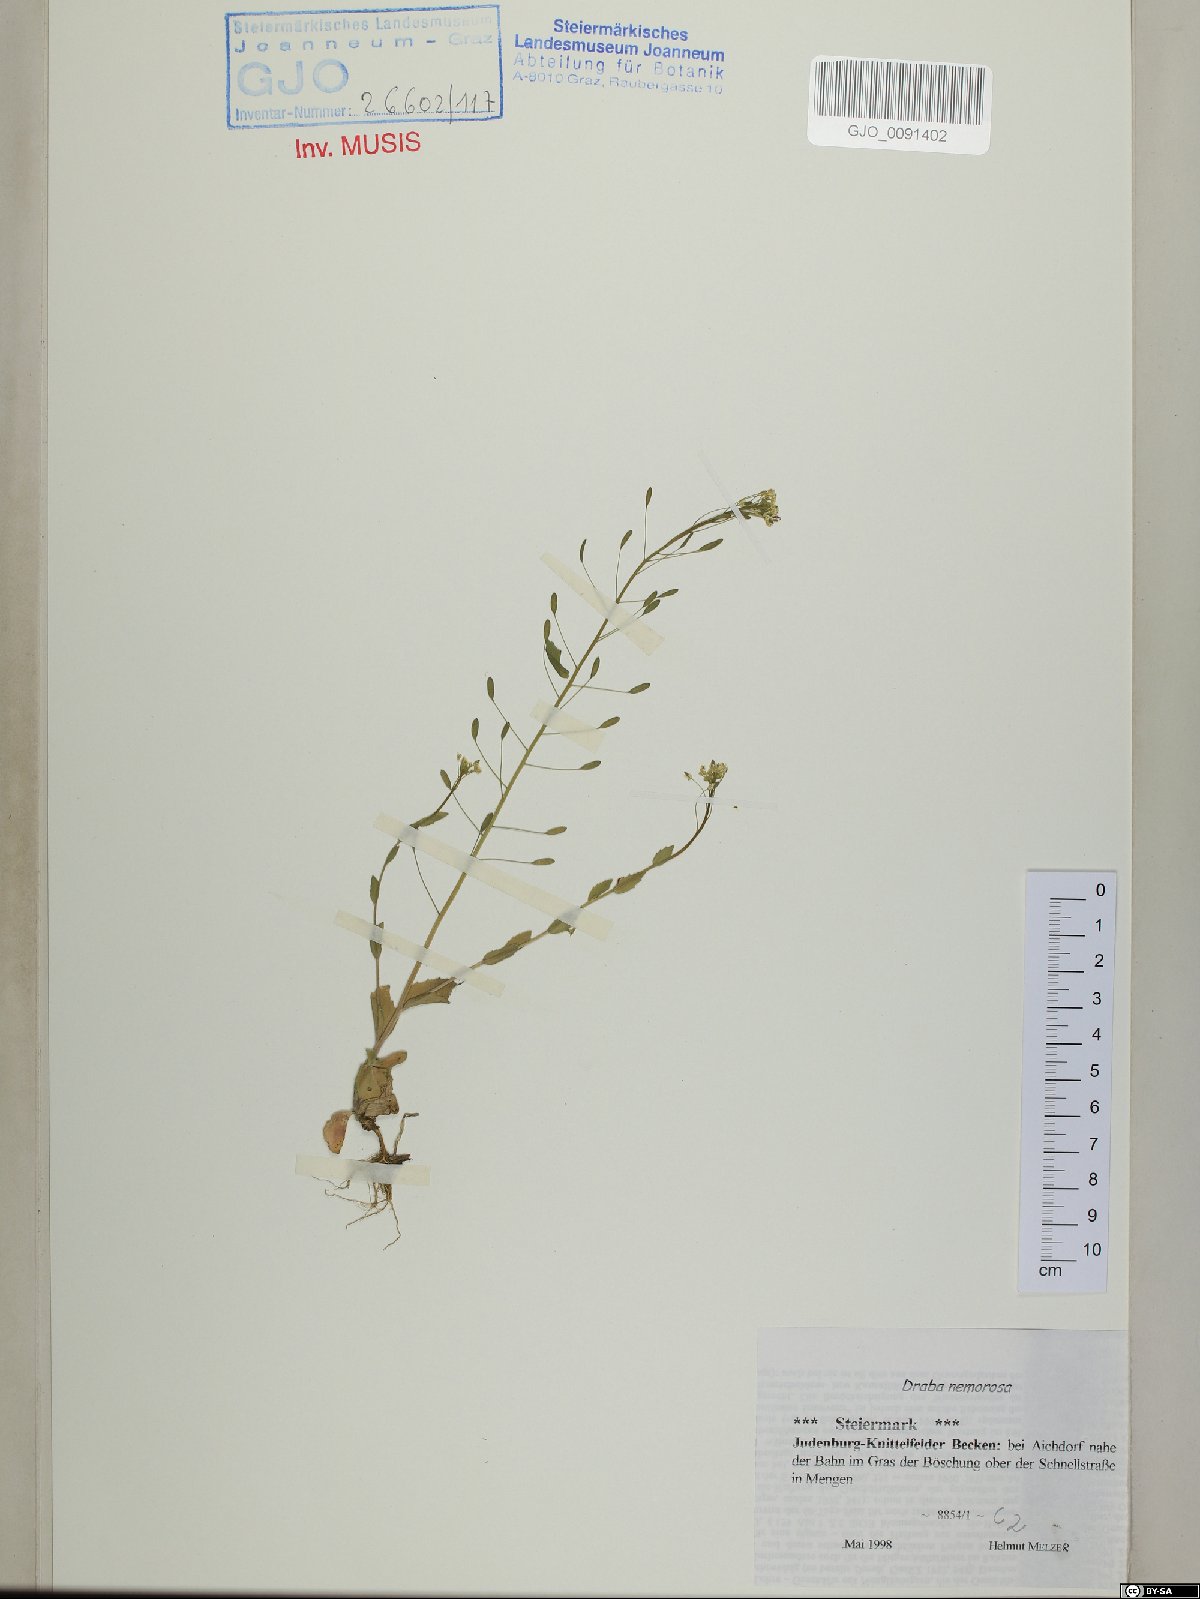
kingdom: Plantae
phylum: Tracheophyta
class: Magnoliopsida
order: Brassicales
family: Brassicaceae
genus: Draba
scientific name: Draba nemorosa
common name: Wood whitlow-grass
